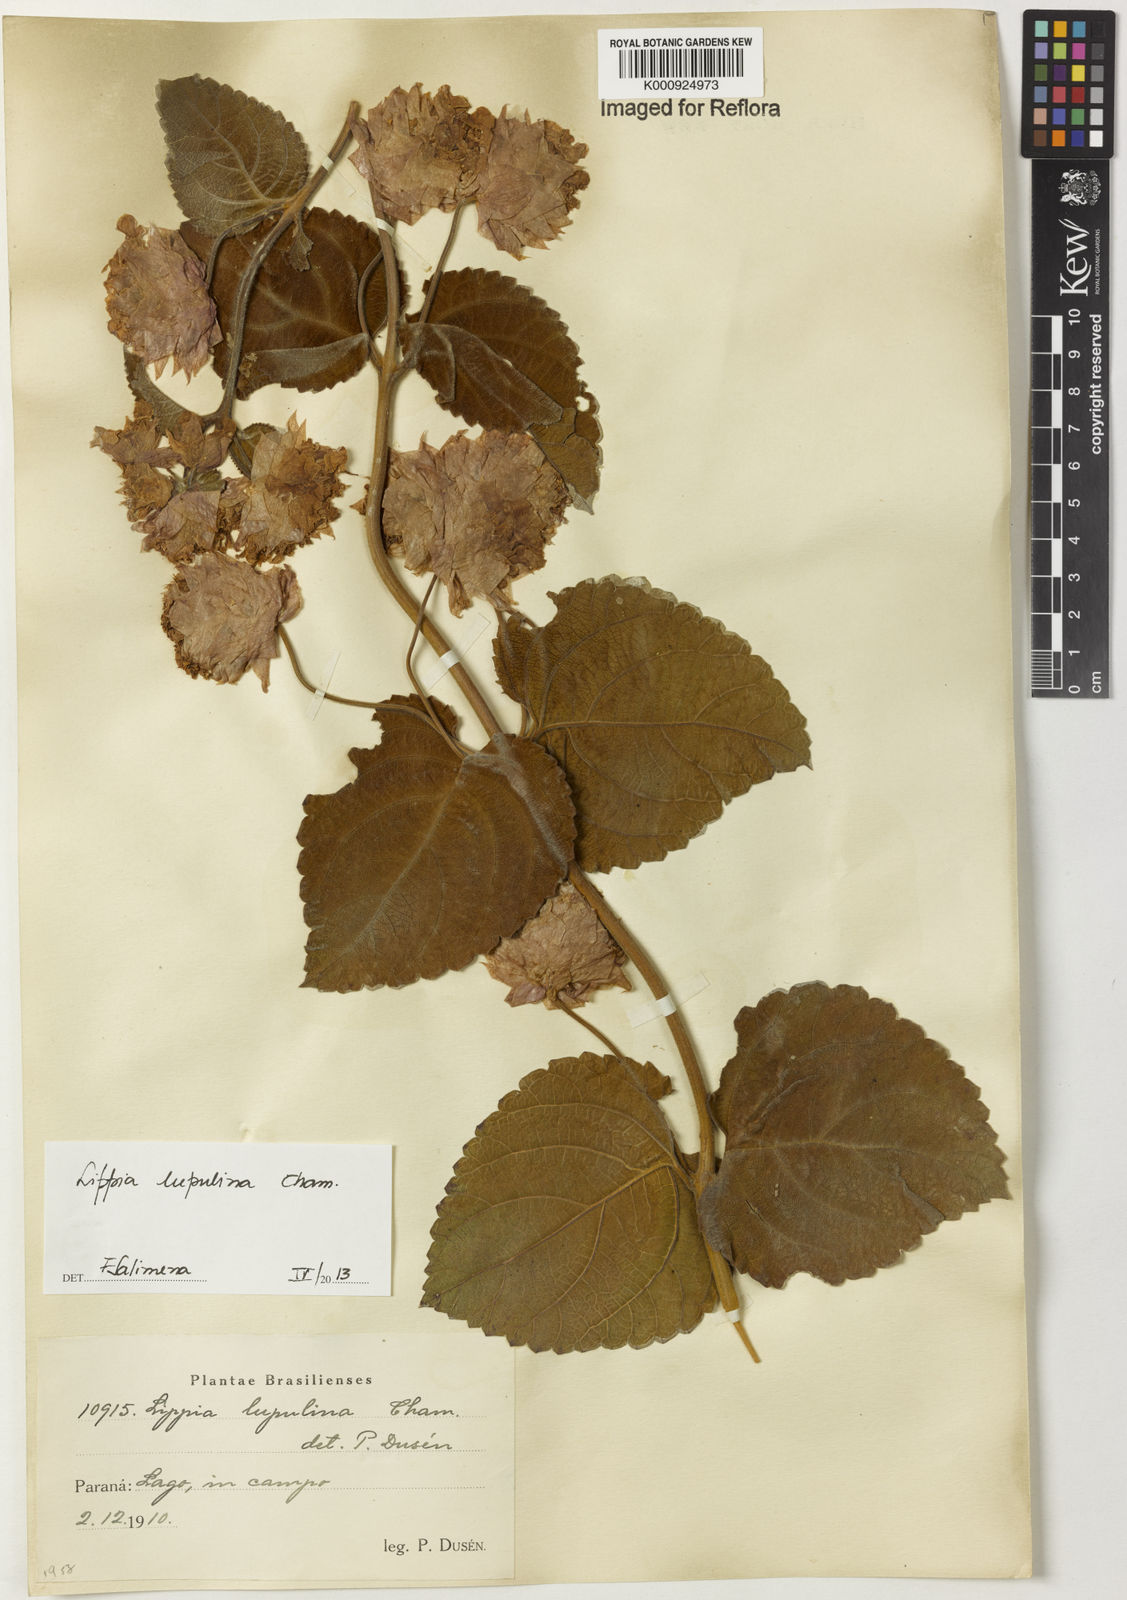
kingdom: Plantae
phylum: Tracheophyta
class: Magnoliopsida
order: Lamiales
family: Verbenaceae
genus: Lippia
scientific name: Lippia lupulina
